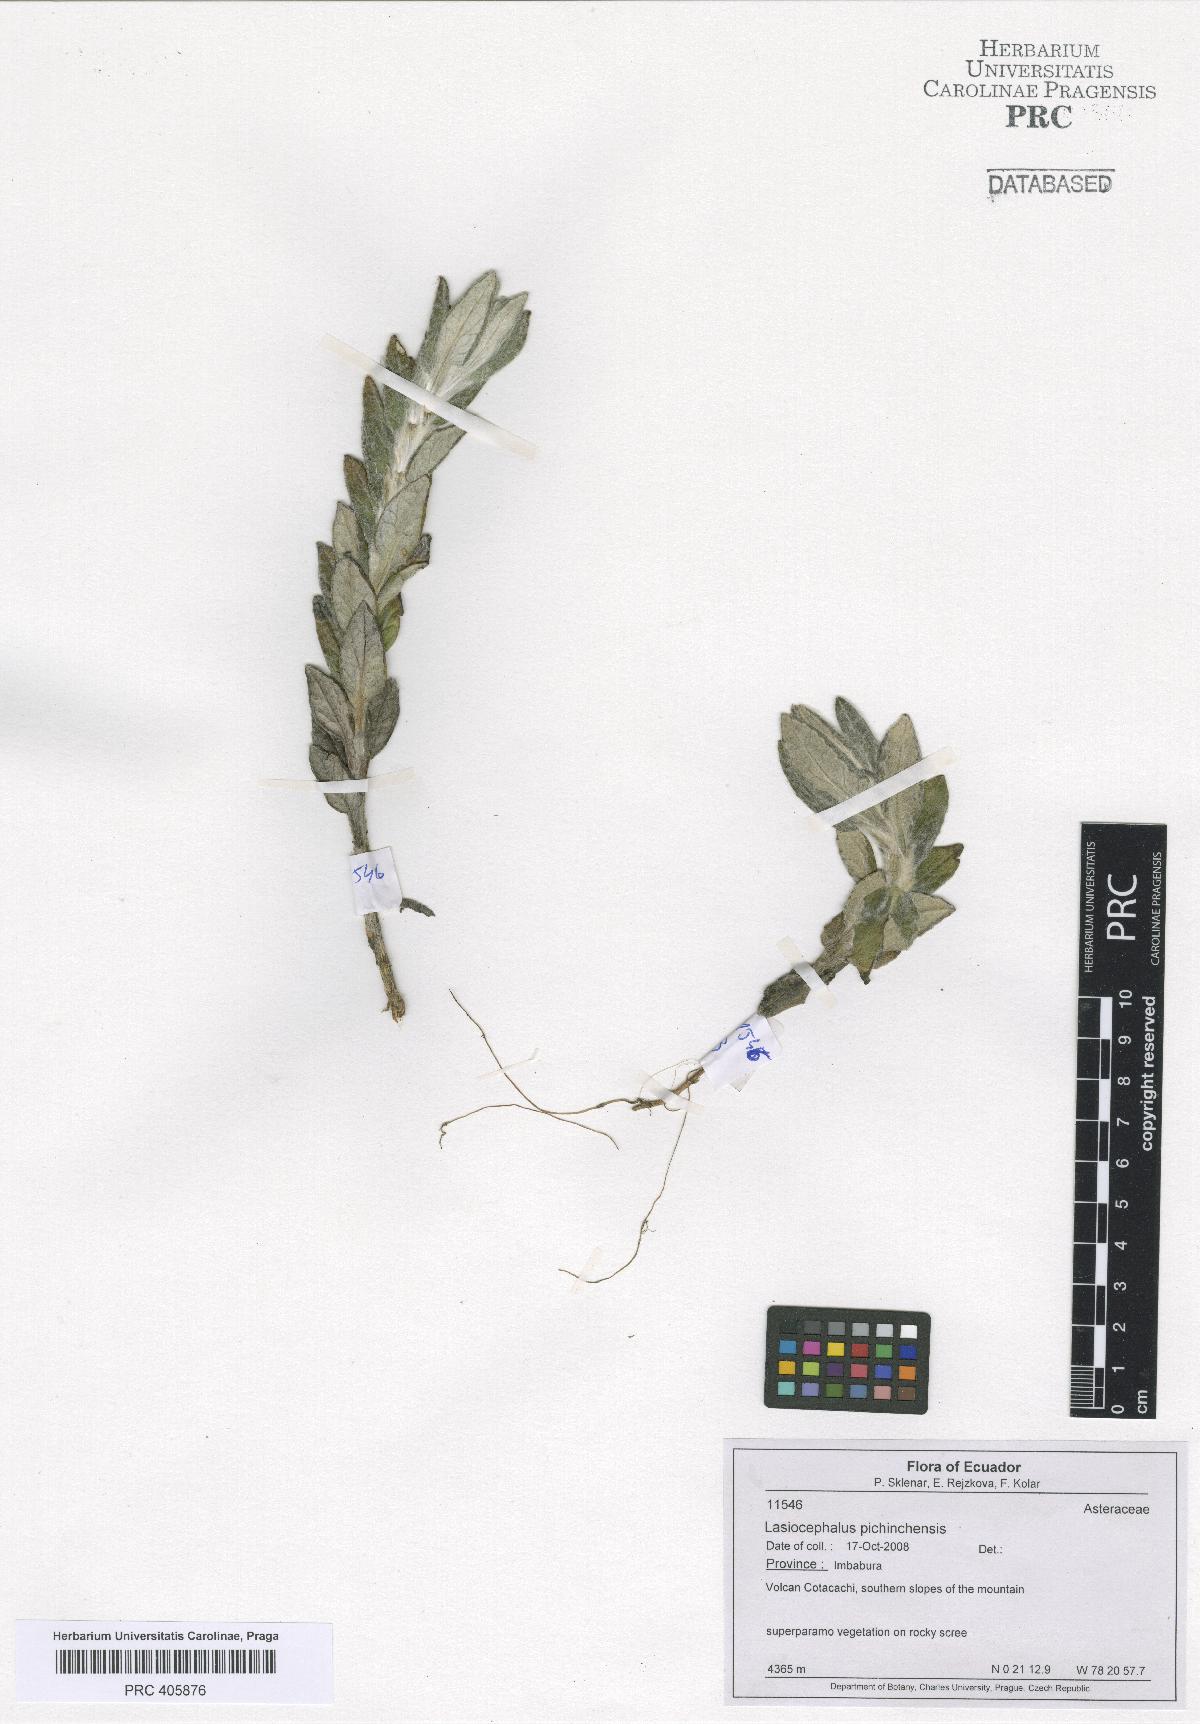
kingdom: Plantae
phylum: Tracheophyta
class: Magnoliopsida
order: Asterales
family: Asteraceae
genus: Lasiocephalus
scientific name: Lasiocephalus lingulatus
